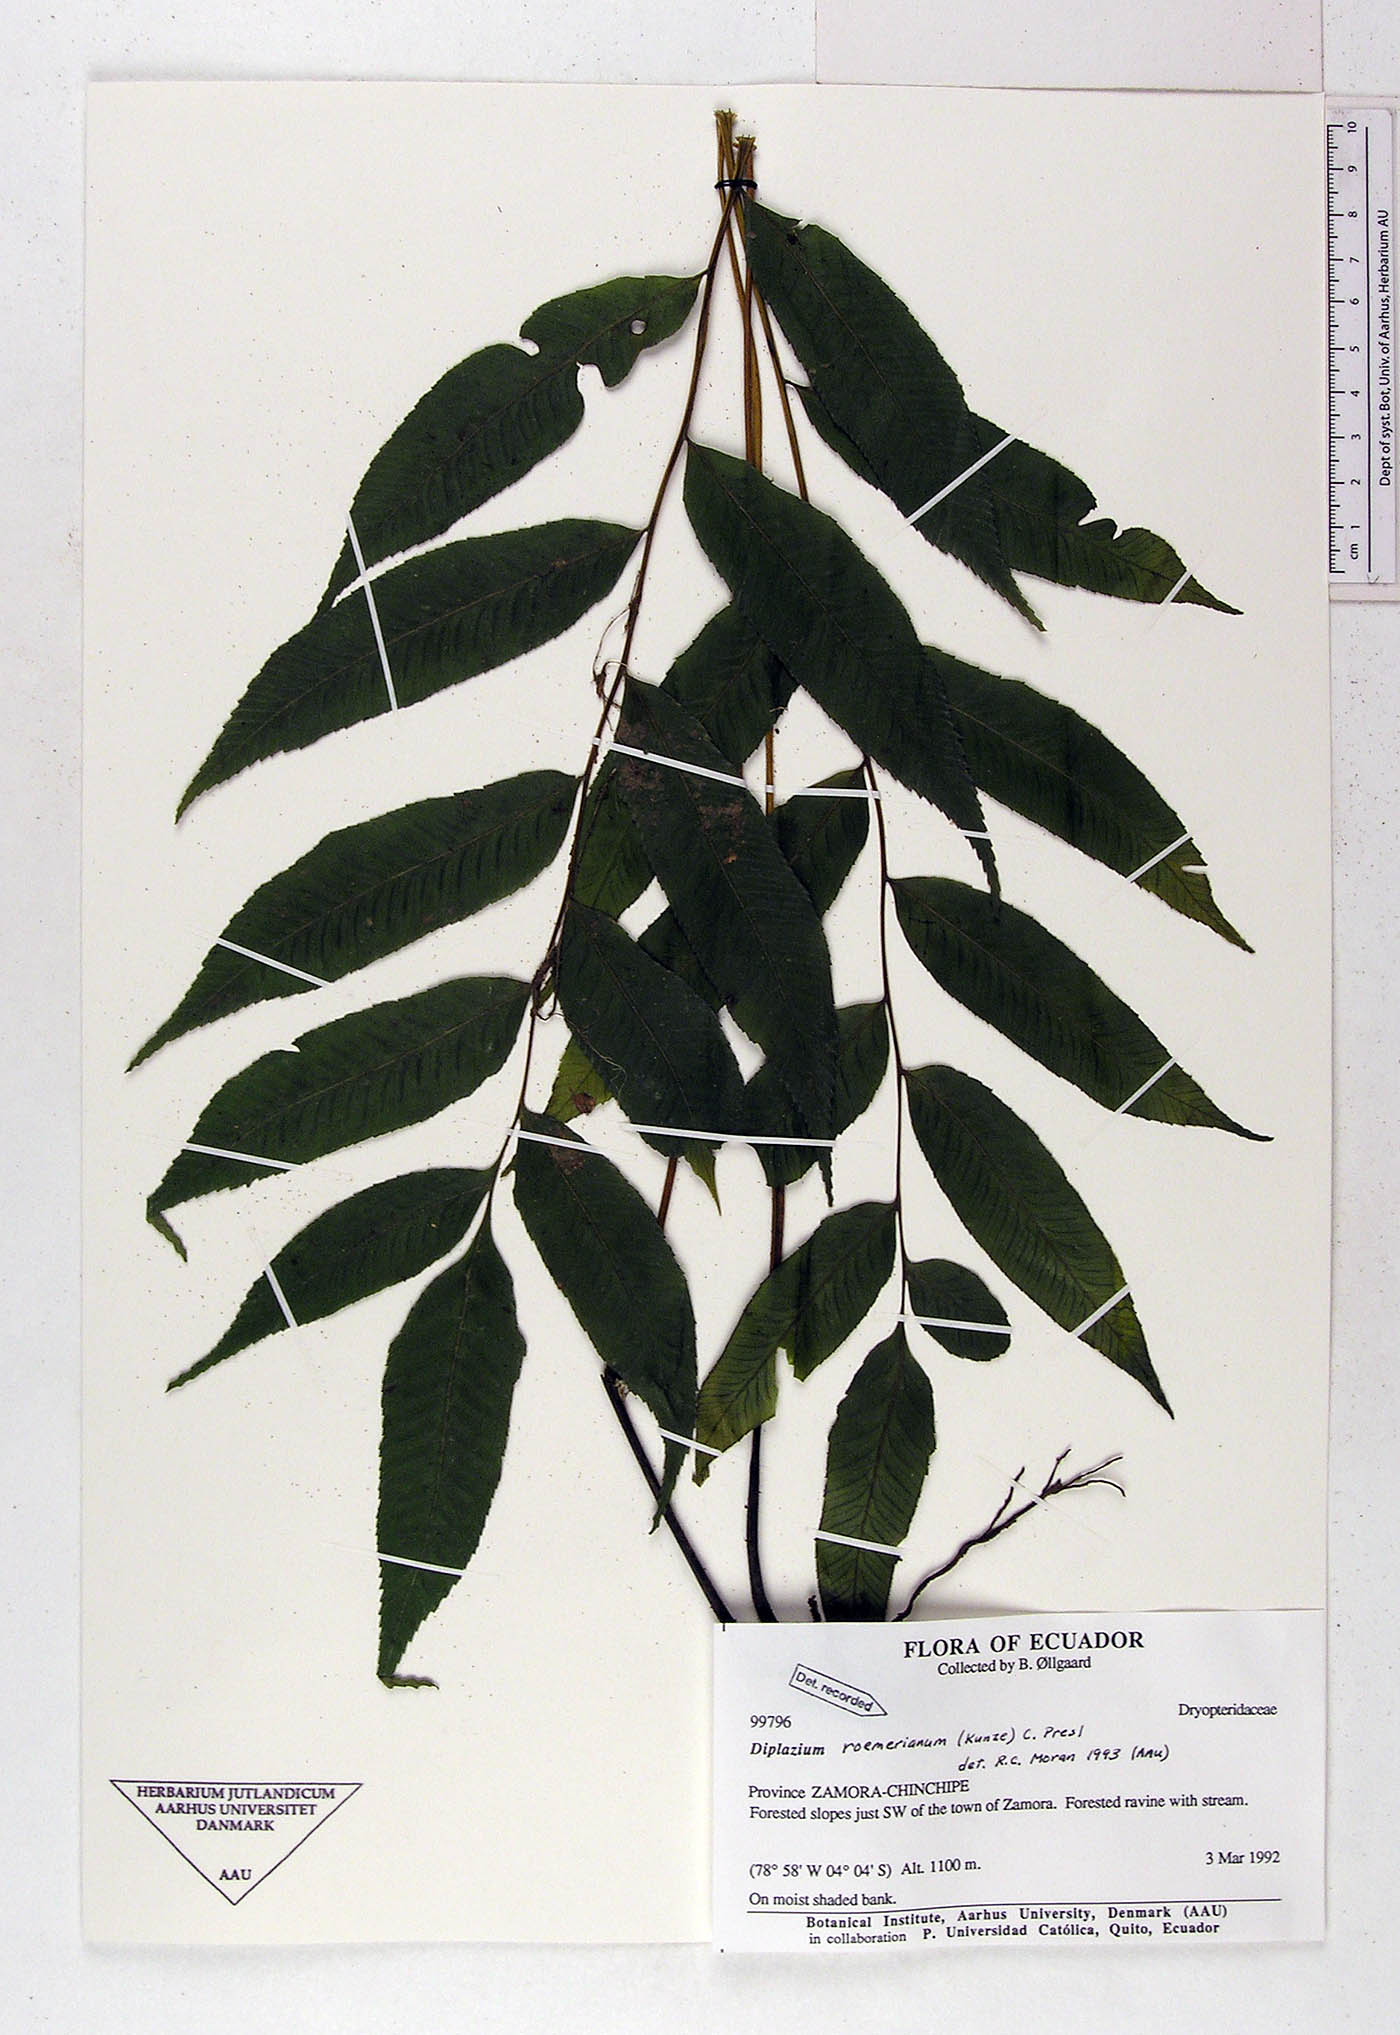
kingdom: Plantae
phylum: Tracheophyta
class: Polypodiopsida
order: Polypodiales
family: Athyriaceae
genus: Diplazium
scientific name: Diplazium roemerianum
